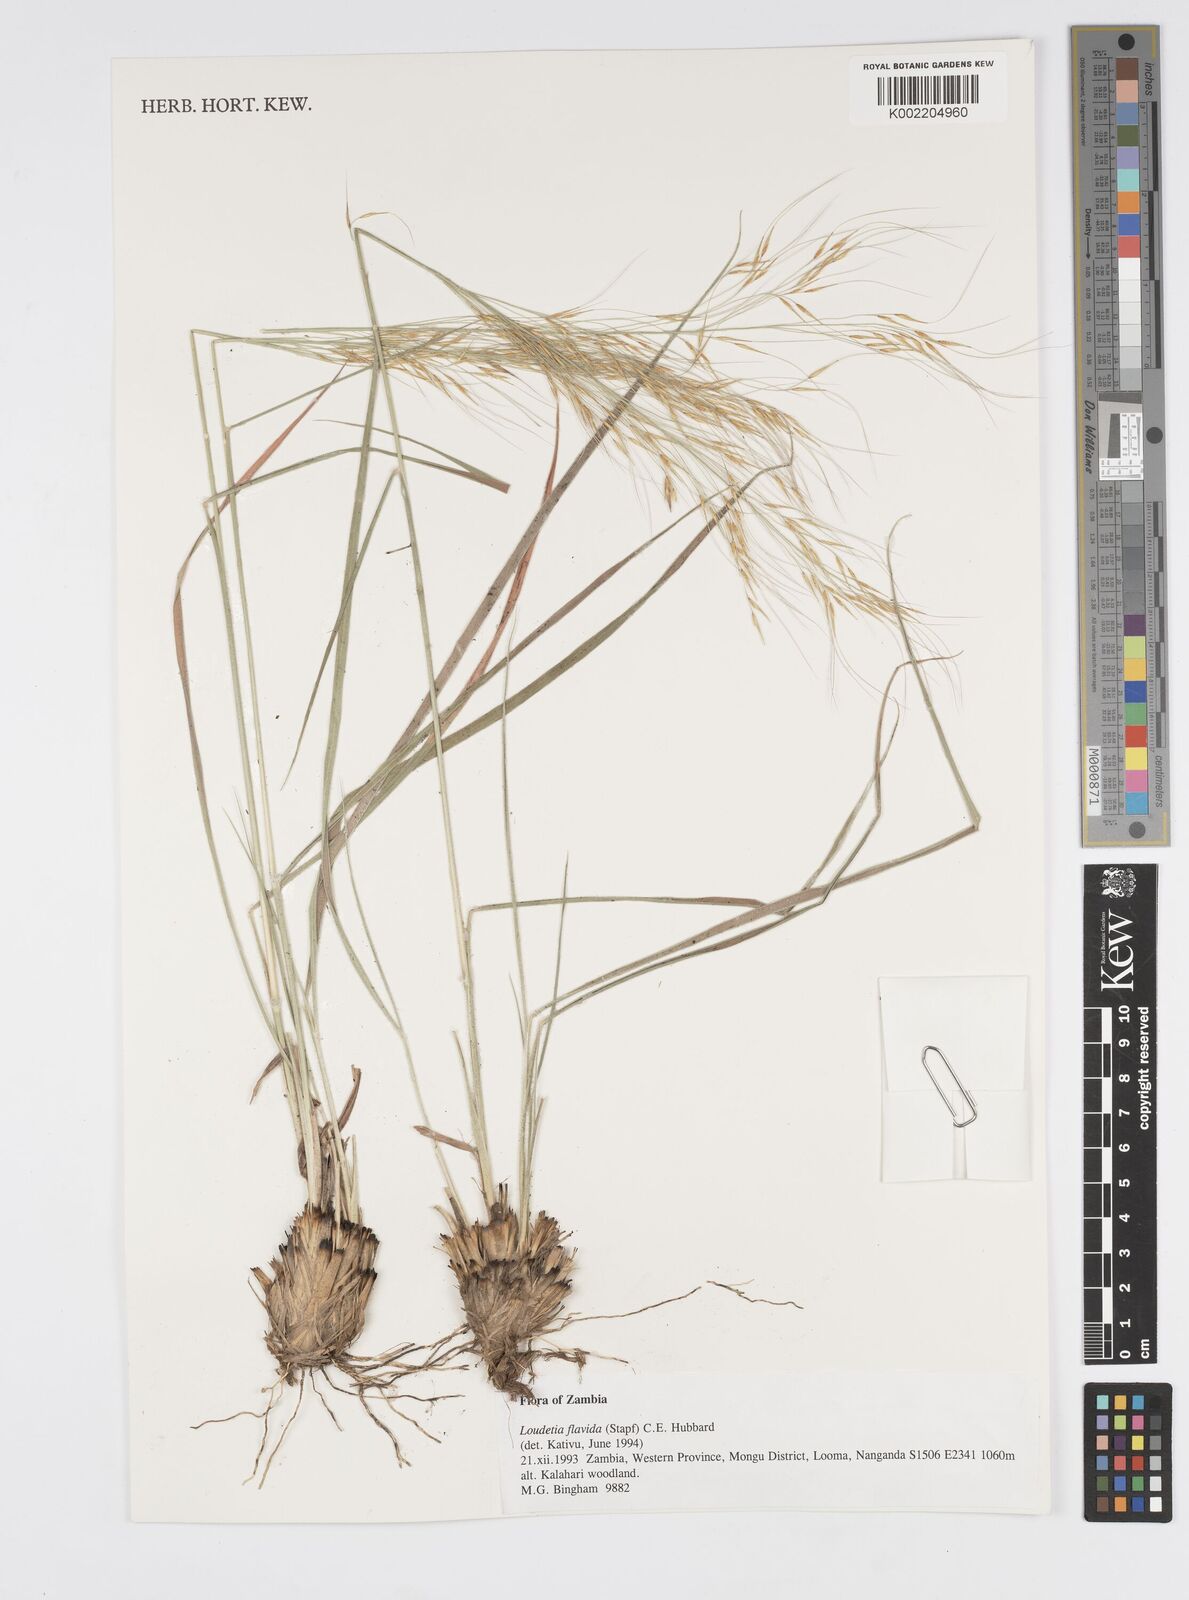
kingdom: Plantae
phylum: Tracheophyta
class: Liliopsida
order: Poales
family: Poaceae
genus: Loudetia
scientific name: Loudetia flavida
